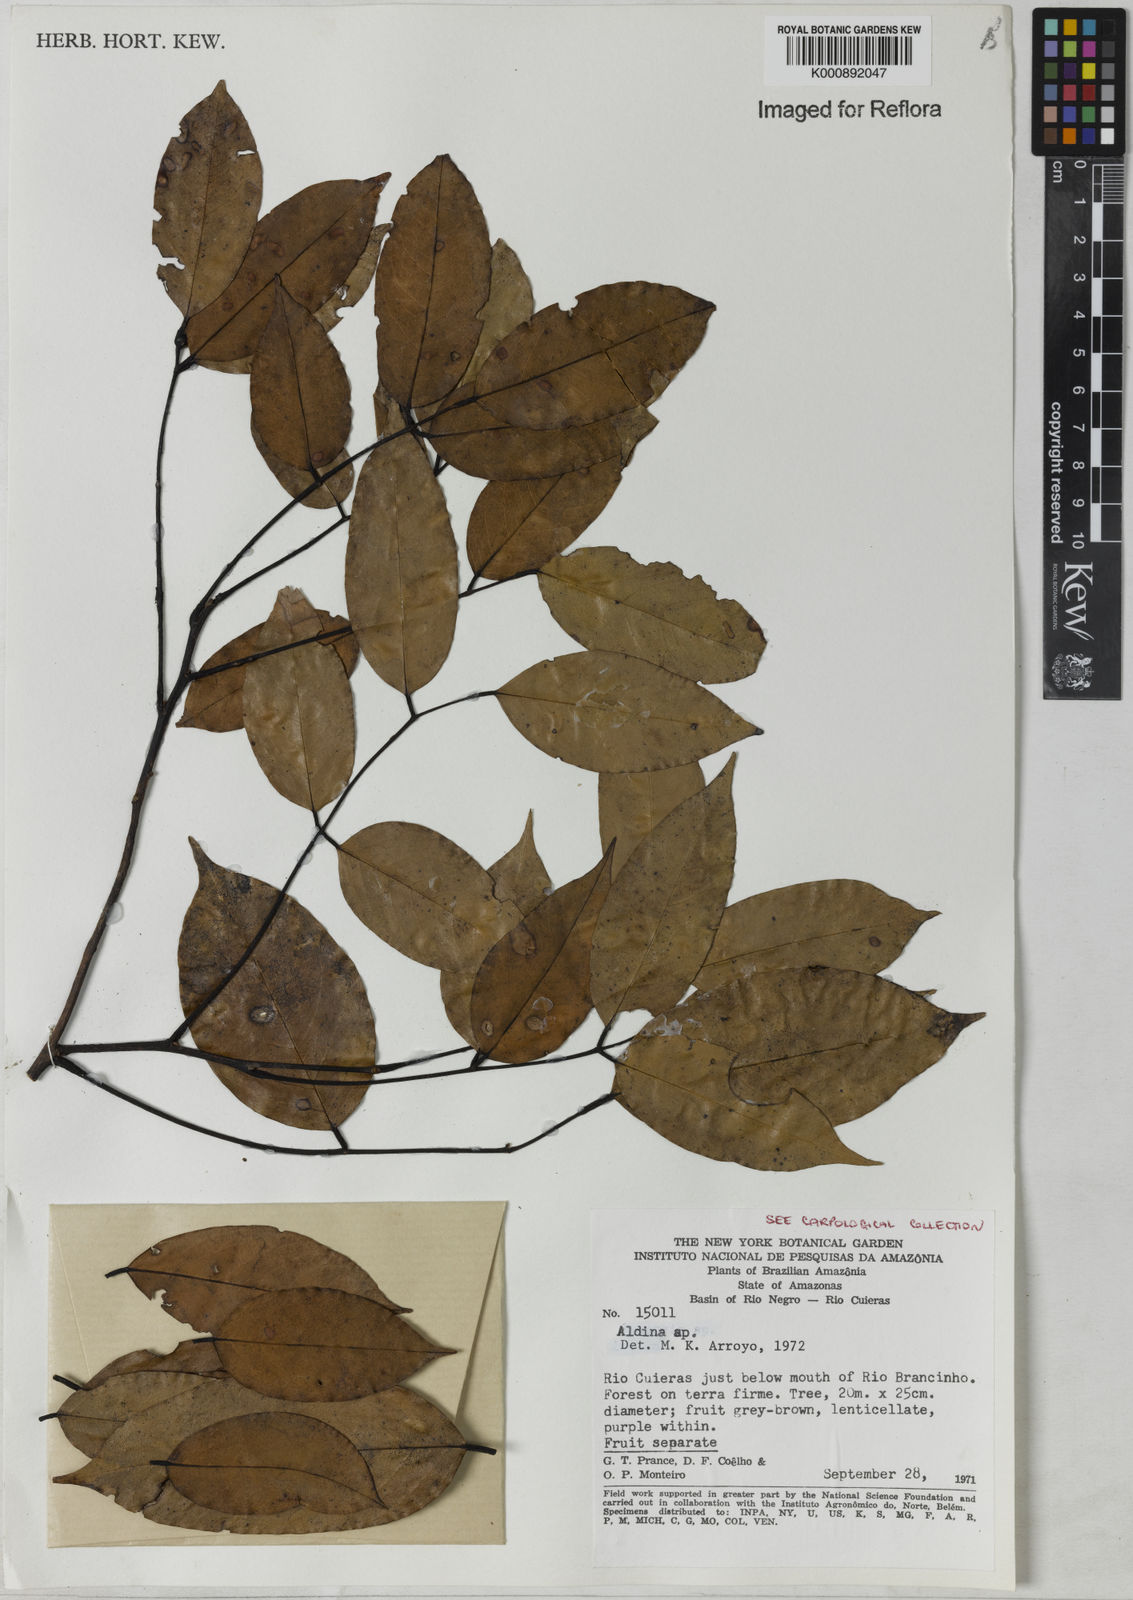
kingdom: Plantae
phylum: Tracheophyta
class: Magnoliopsida
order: Fabales
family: Fabaceae
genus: Aldina
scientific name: Aldina
